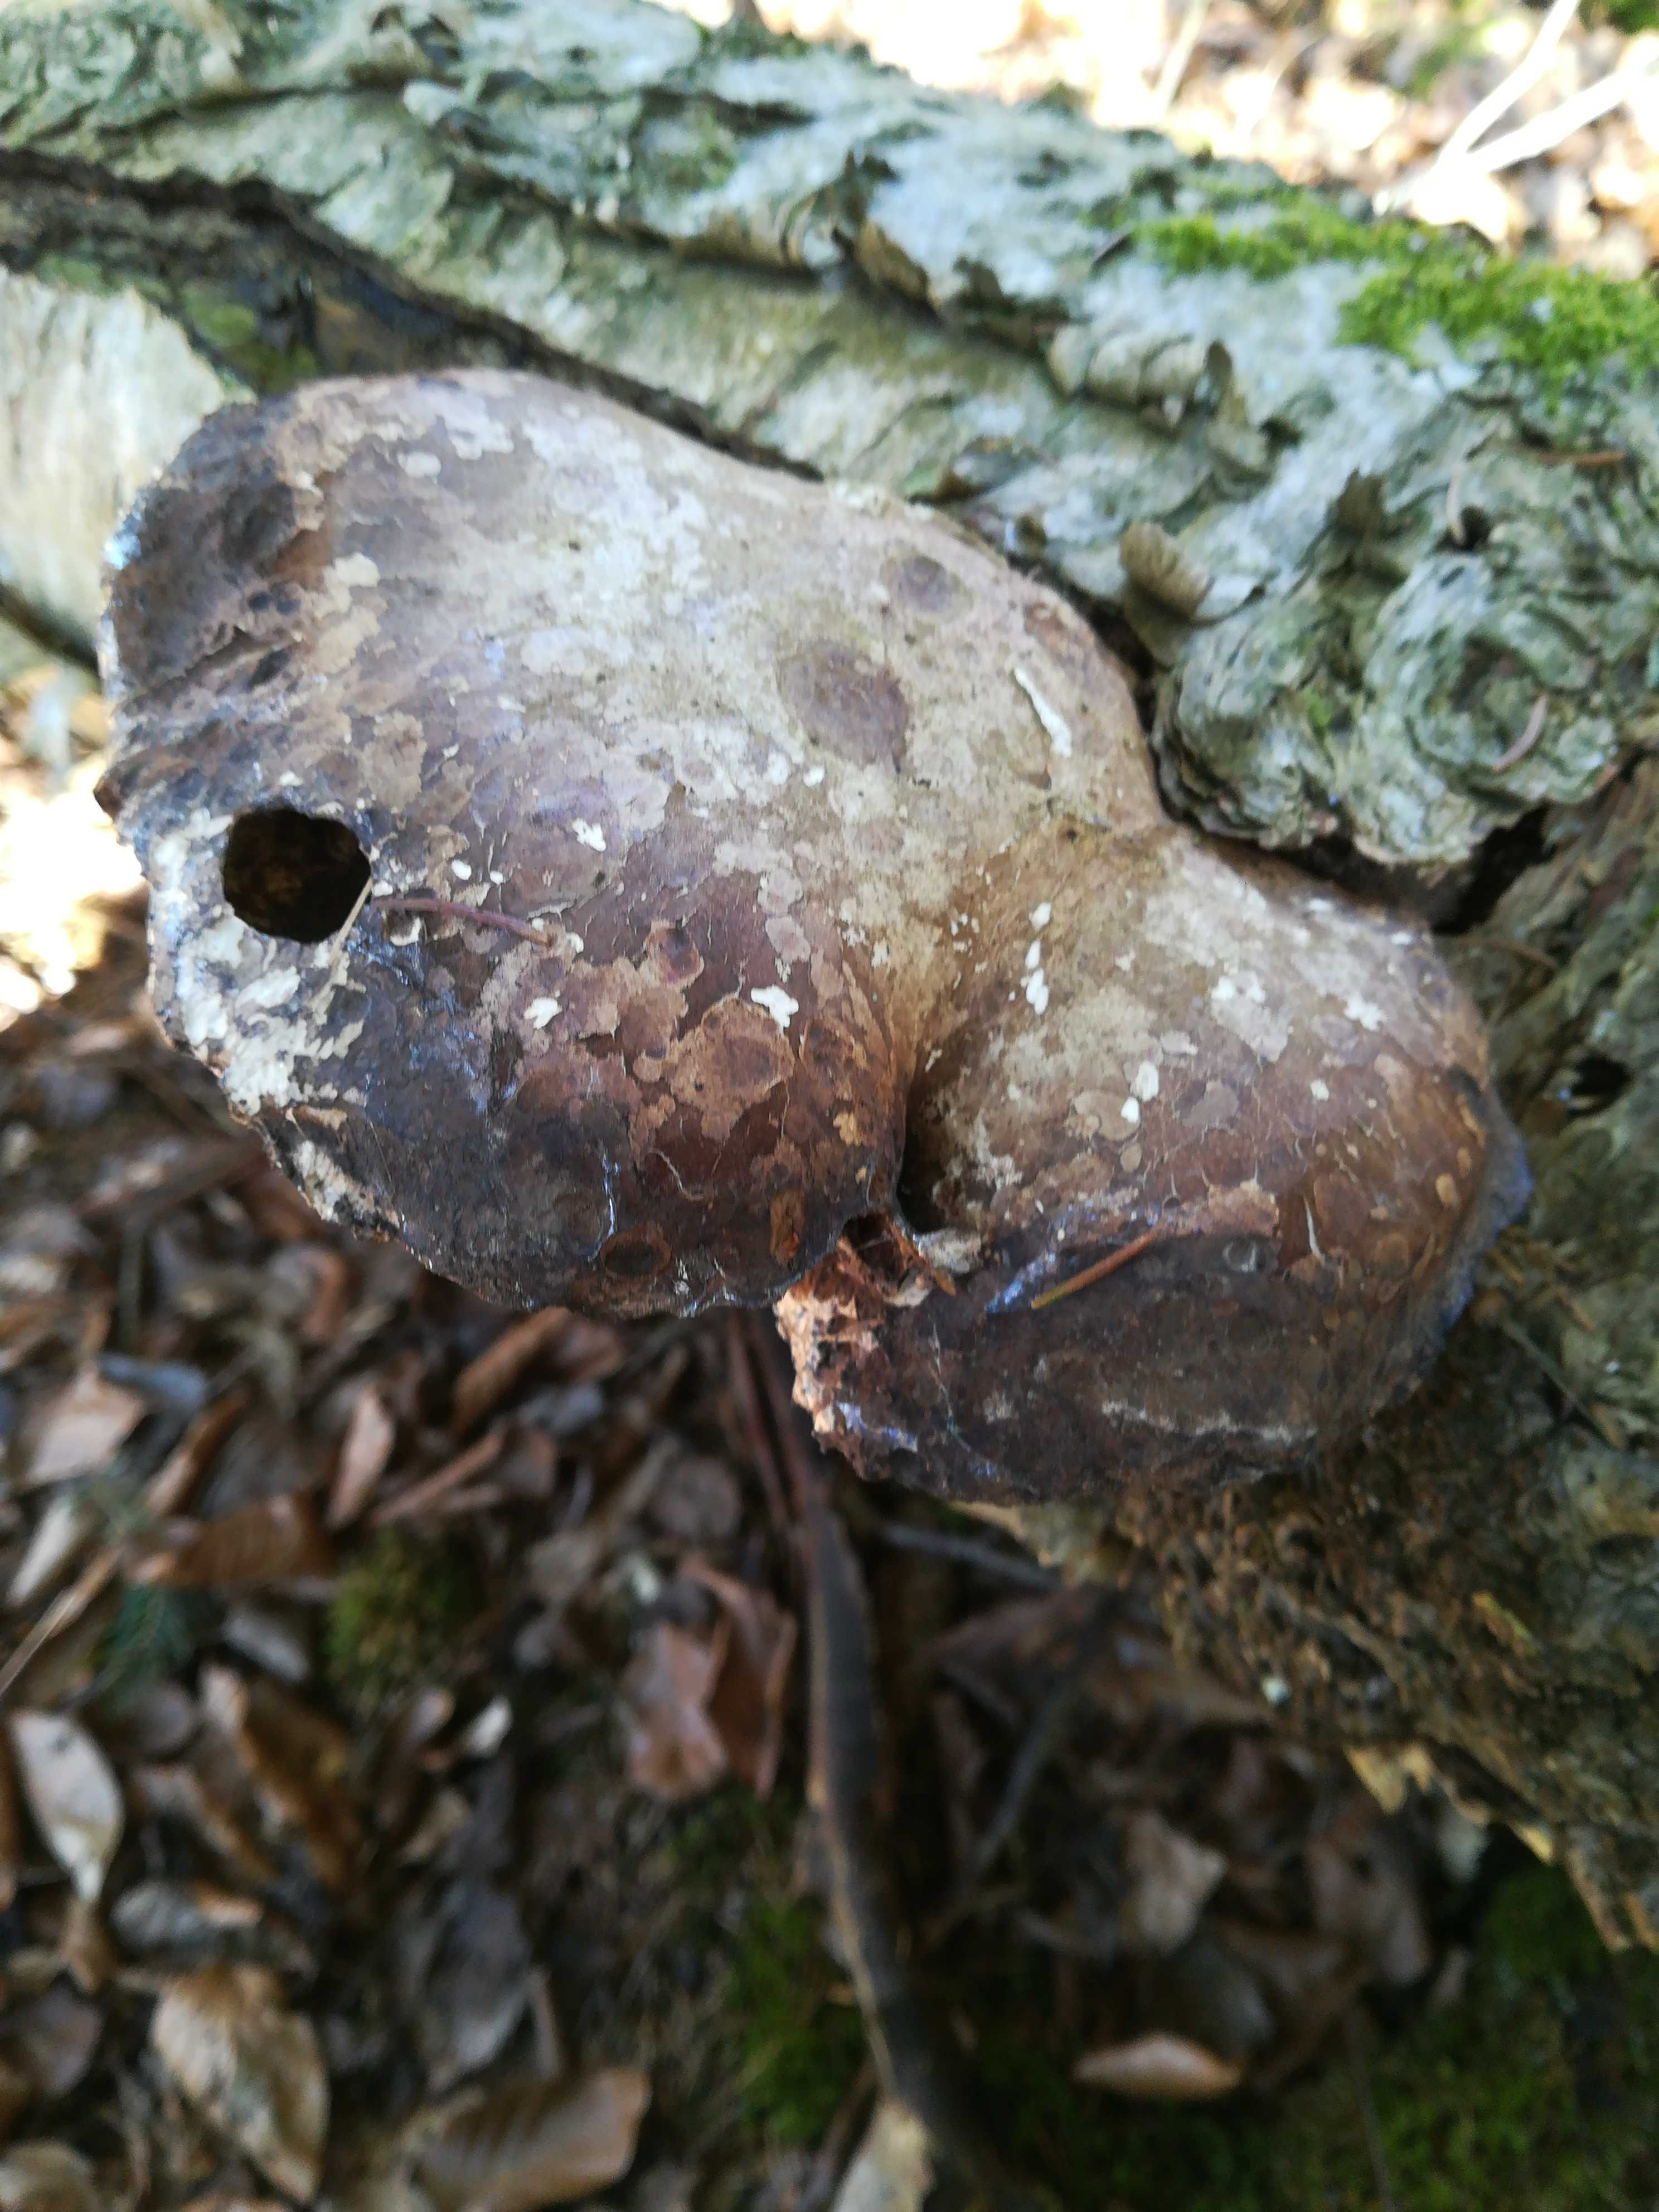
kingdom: Fungi
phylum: Basidiomycota
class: Agaricomycetes
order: Polyporales
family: Fomitopsidaceae
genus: Fomitopsis
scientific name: Fomitopsis betulina
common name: birkeporesvamp
